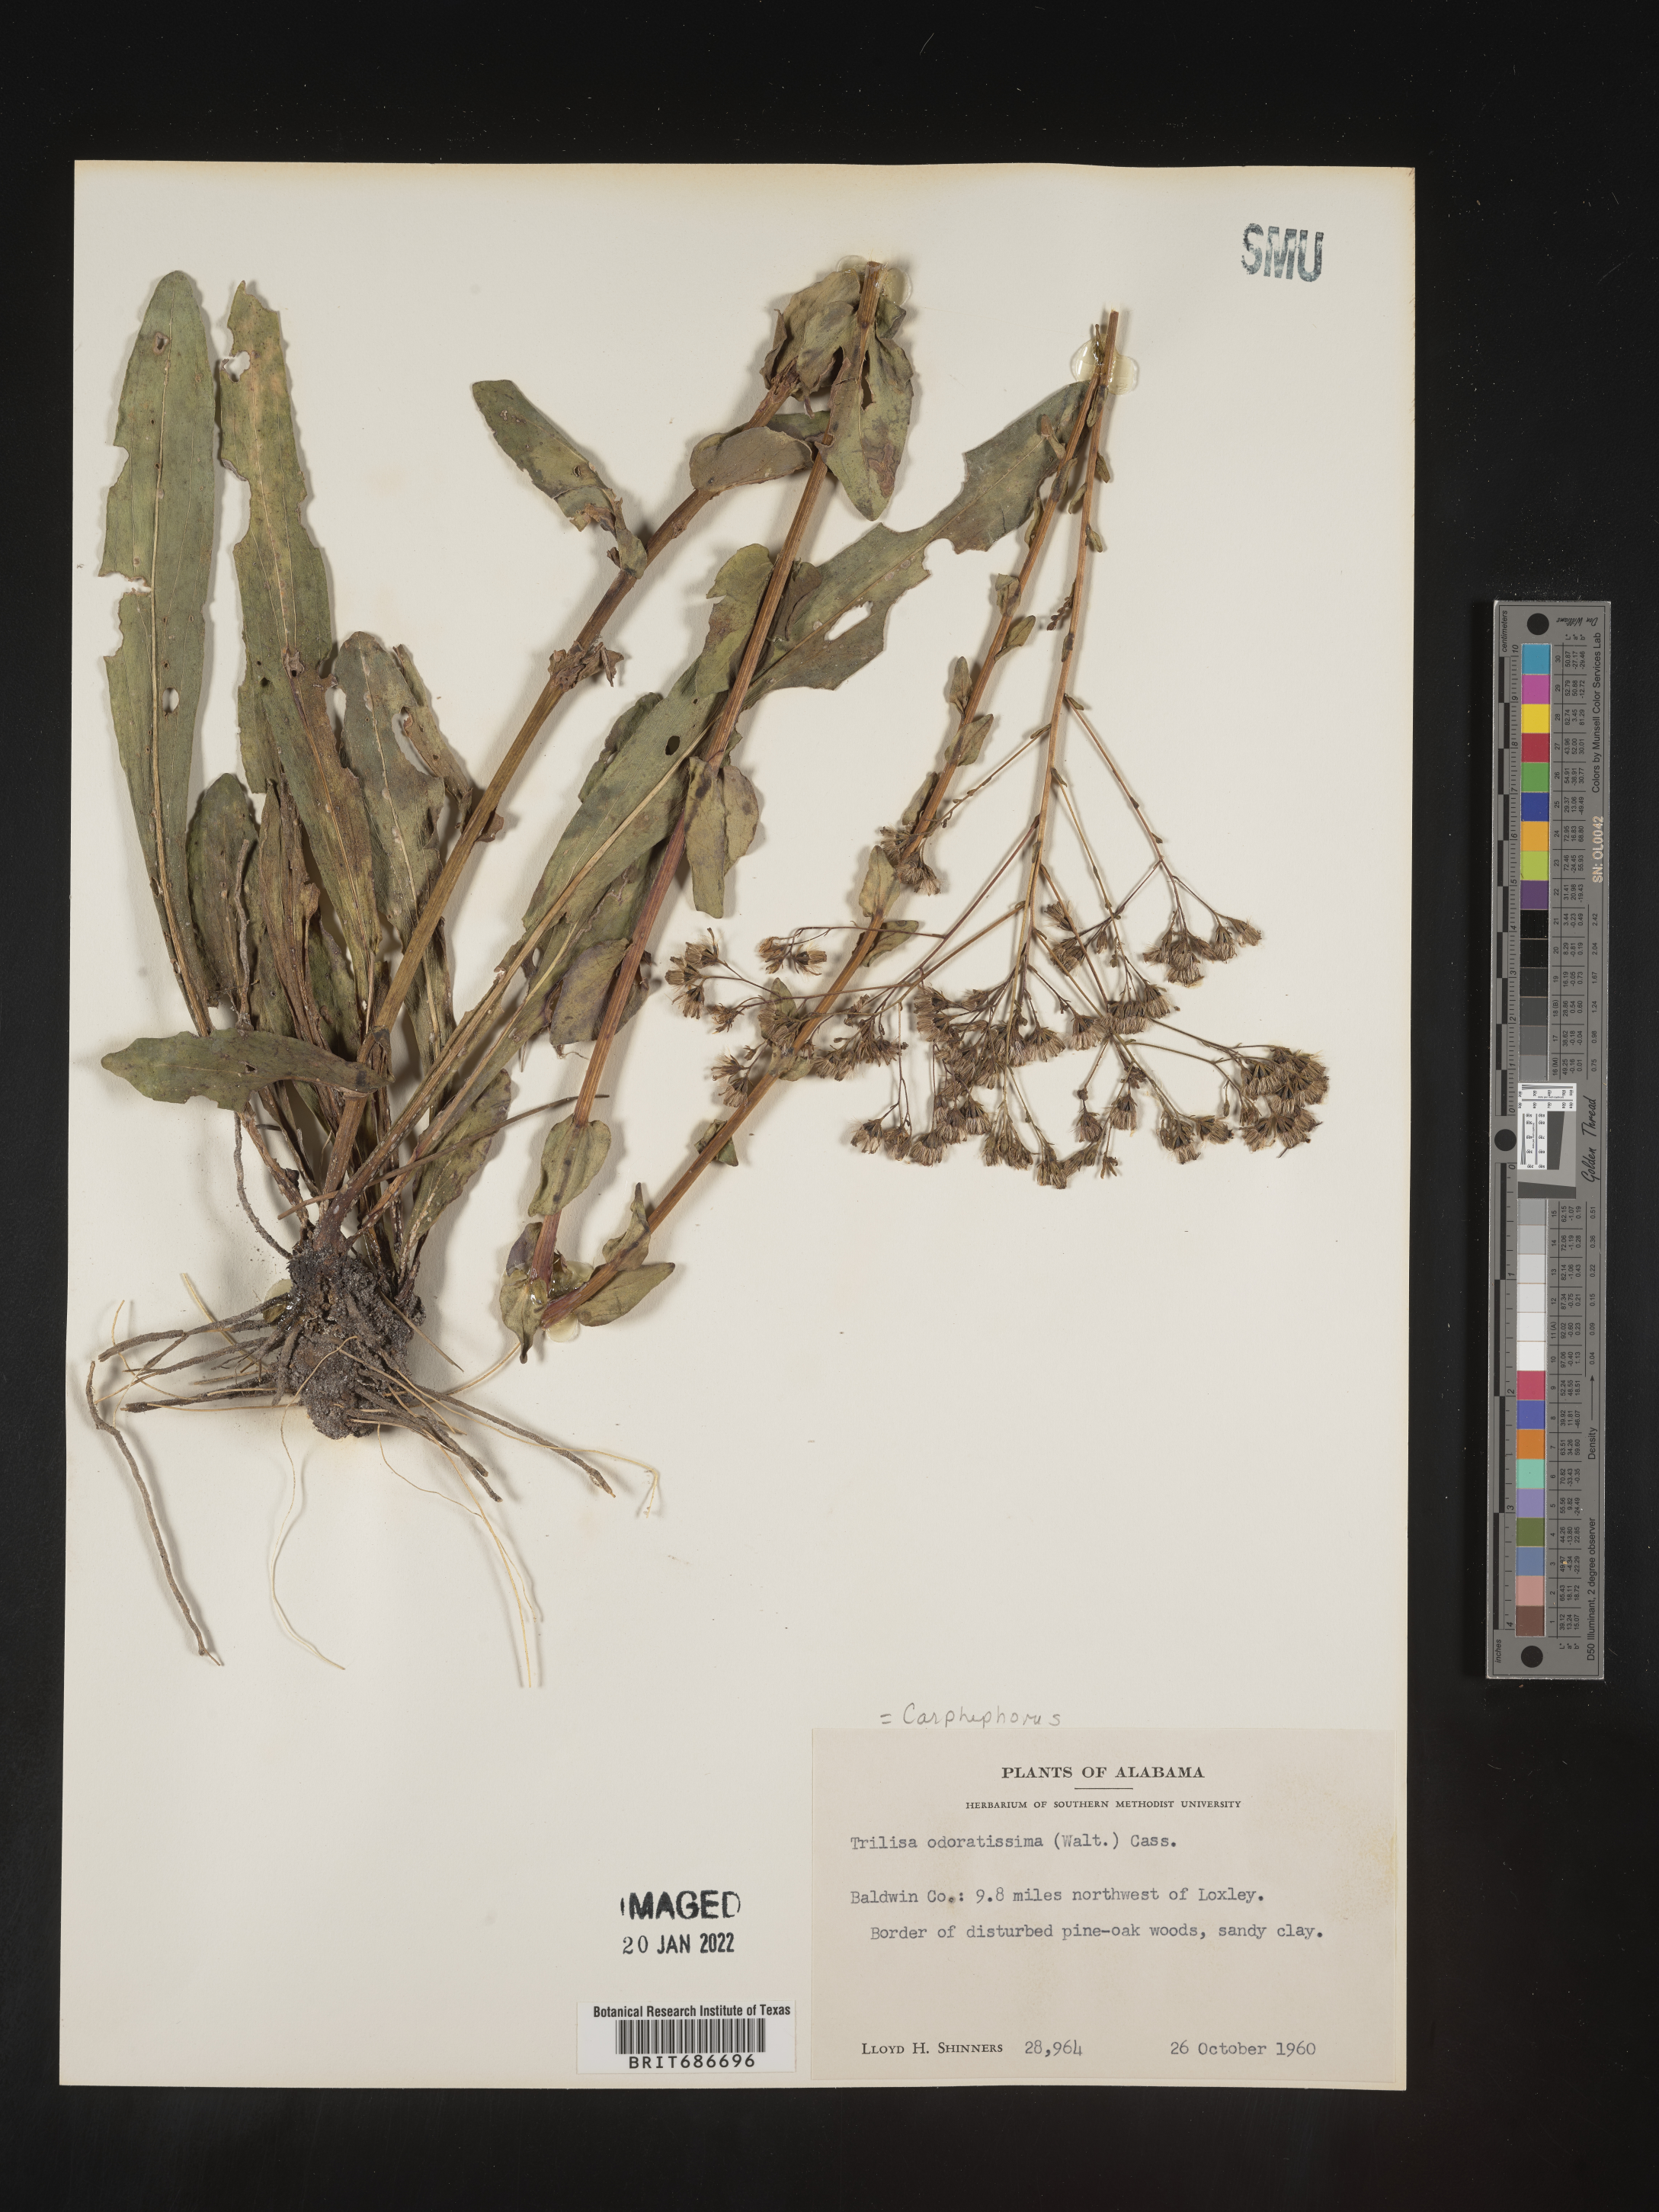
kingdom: Plantae
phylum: Tracheophyta
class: Magnoliopsida
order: Asterales
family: Asteraceae
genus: Carphephorus
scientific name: Carphephorus odoratissimus
